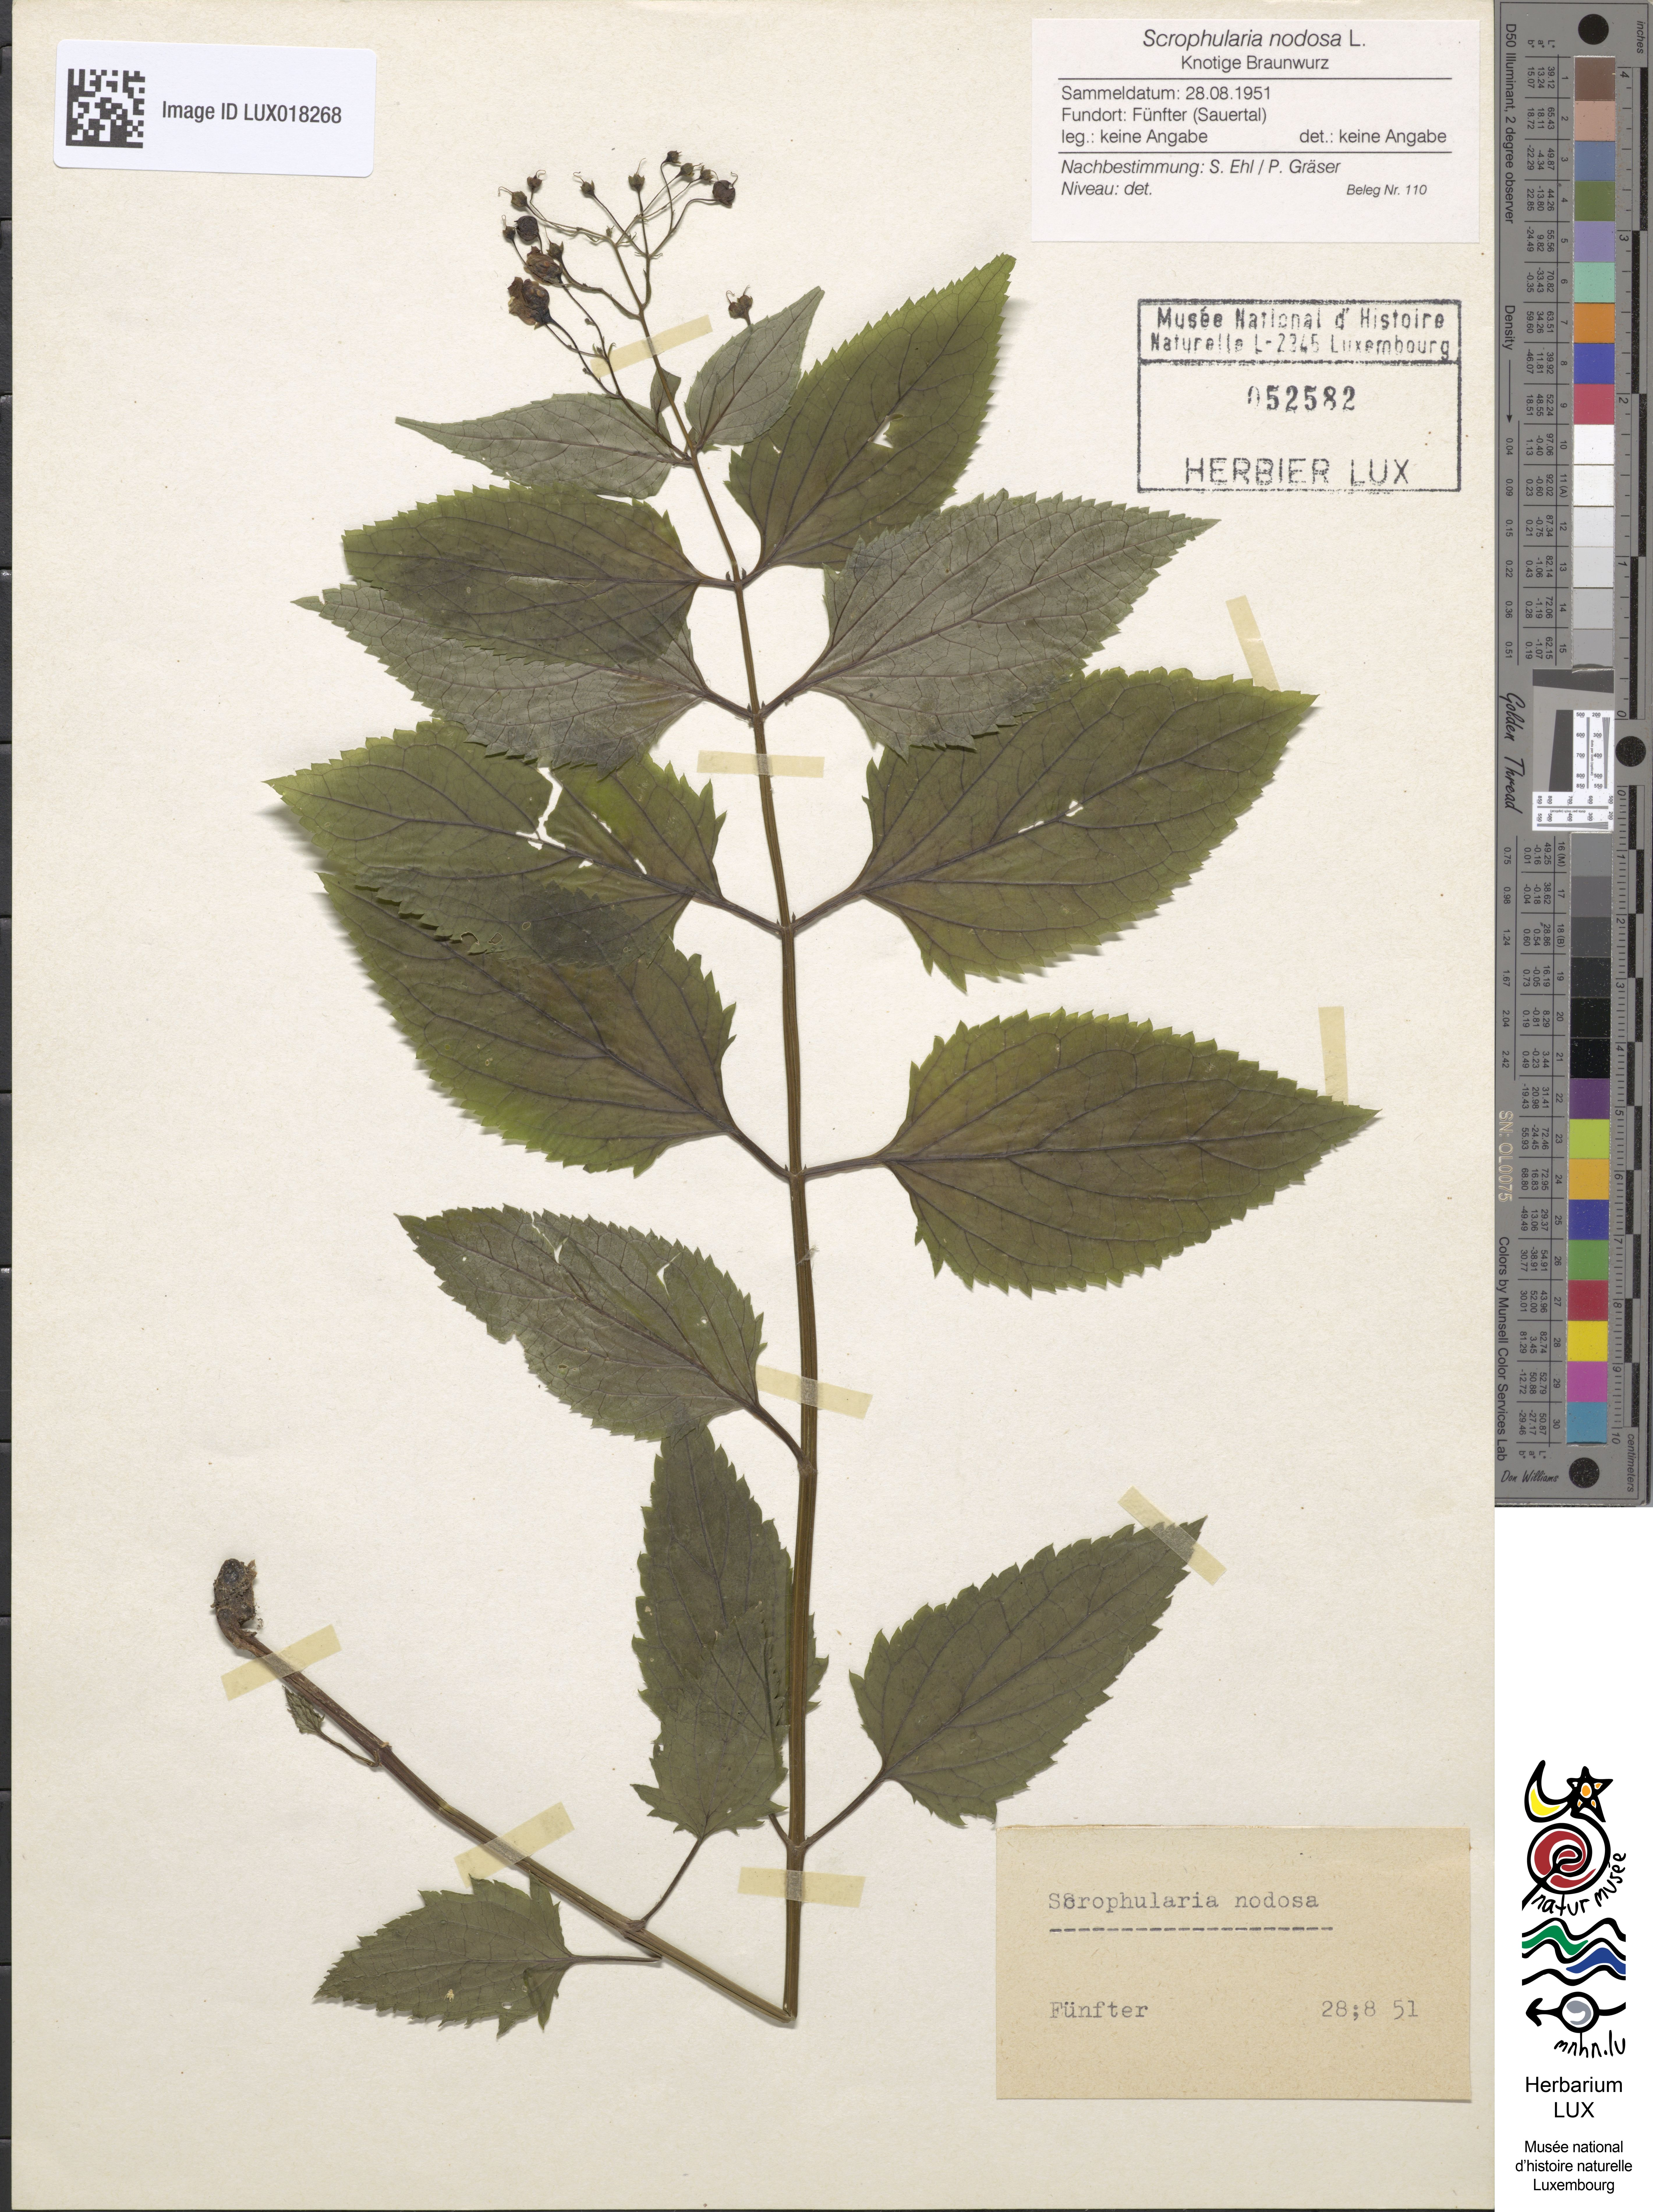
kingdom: Plantae
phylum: Tracheophyta
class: Magnoliopsida
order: Lamiales
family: Scrophulariaceae
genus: Scrophularia
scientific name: Scrophularia nodosa
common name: Common figwort
